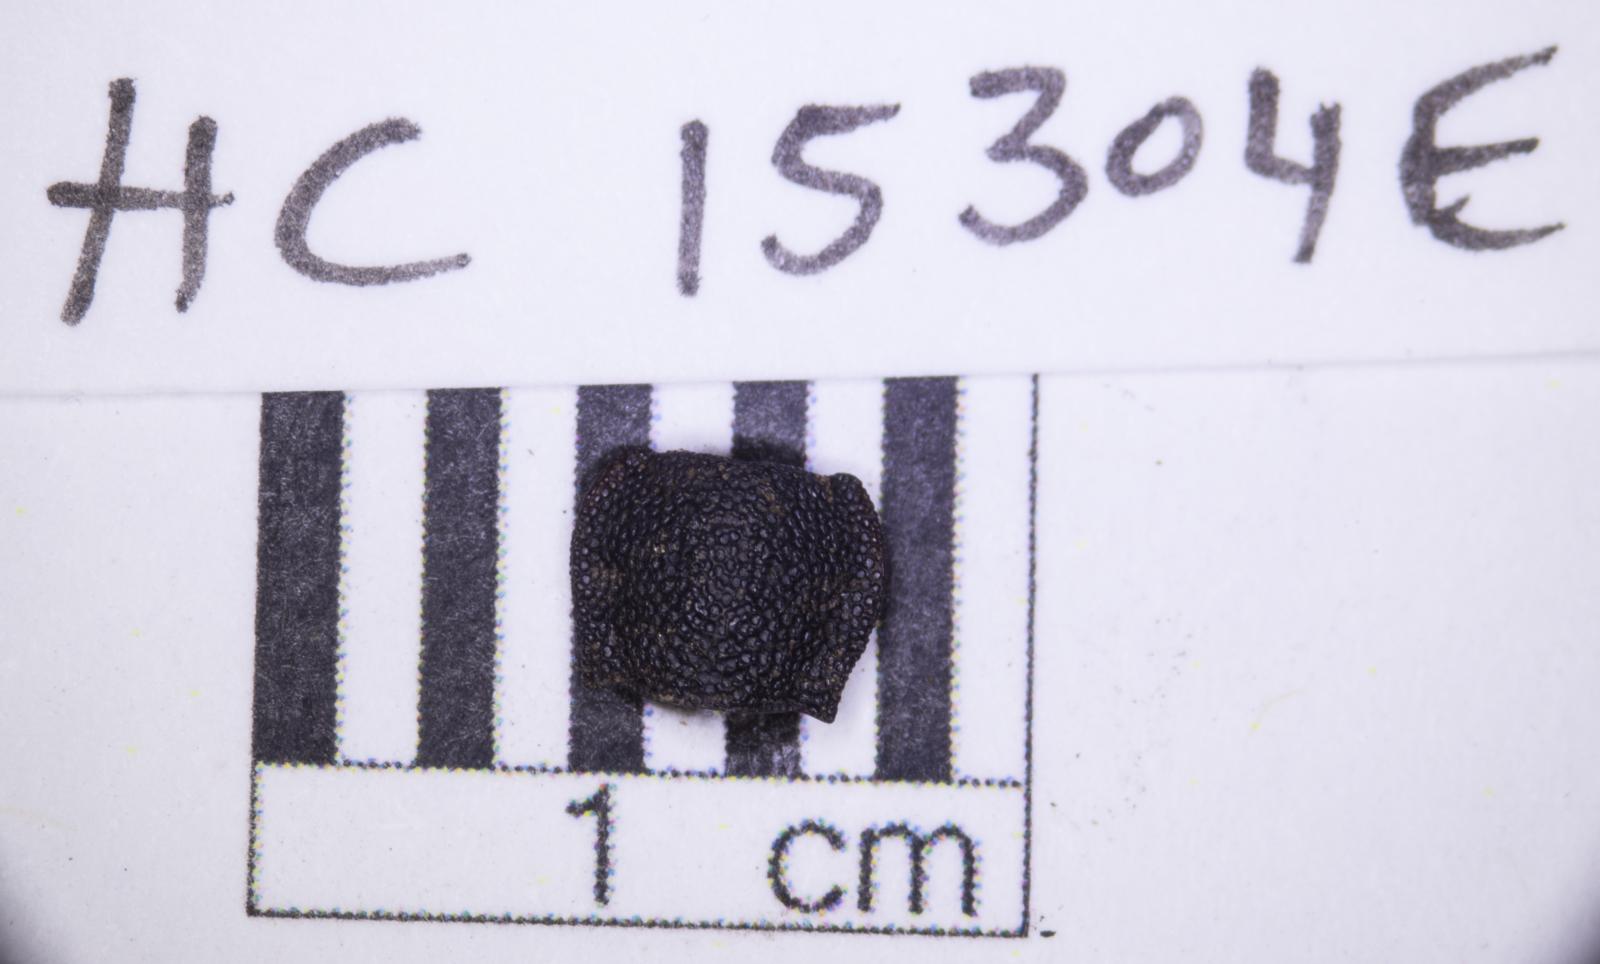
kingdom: Animalia
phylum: Arthropoda
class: Insecta
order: Coleoptera
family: Tenebrionidae
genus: Nyctoporis
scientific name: Nyctoporis carinata
